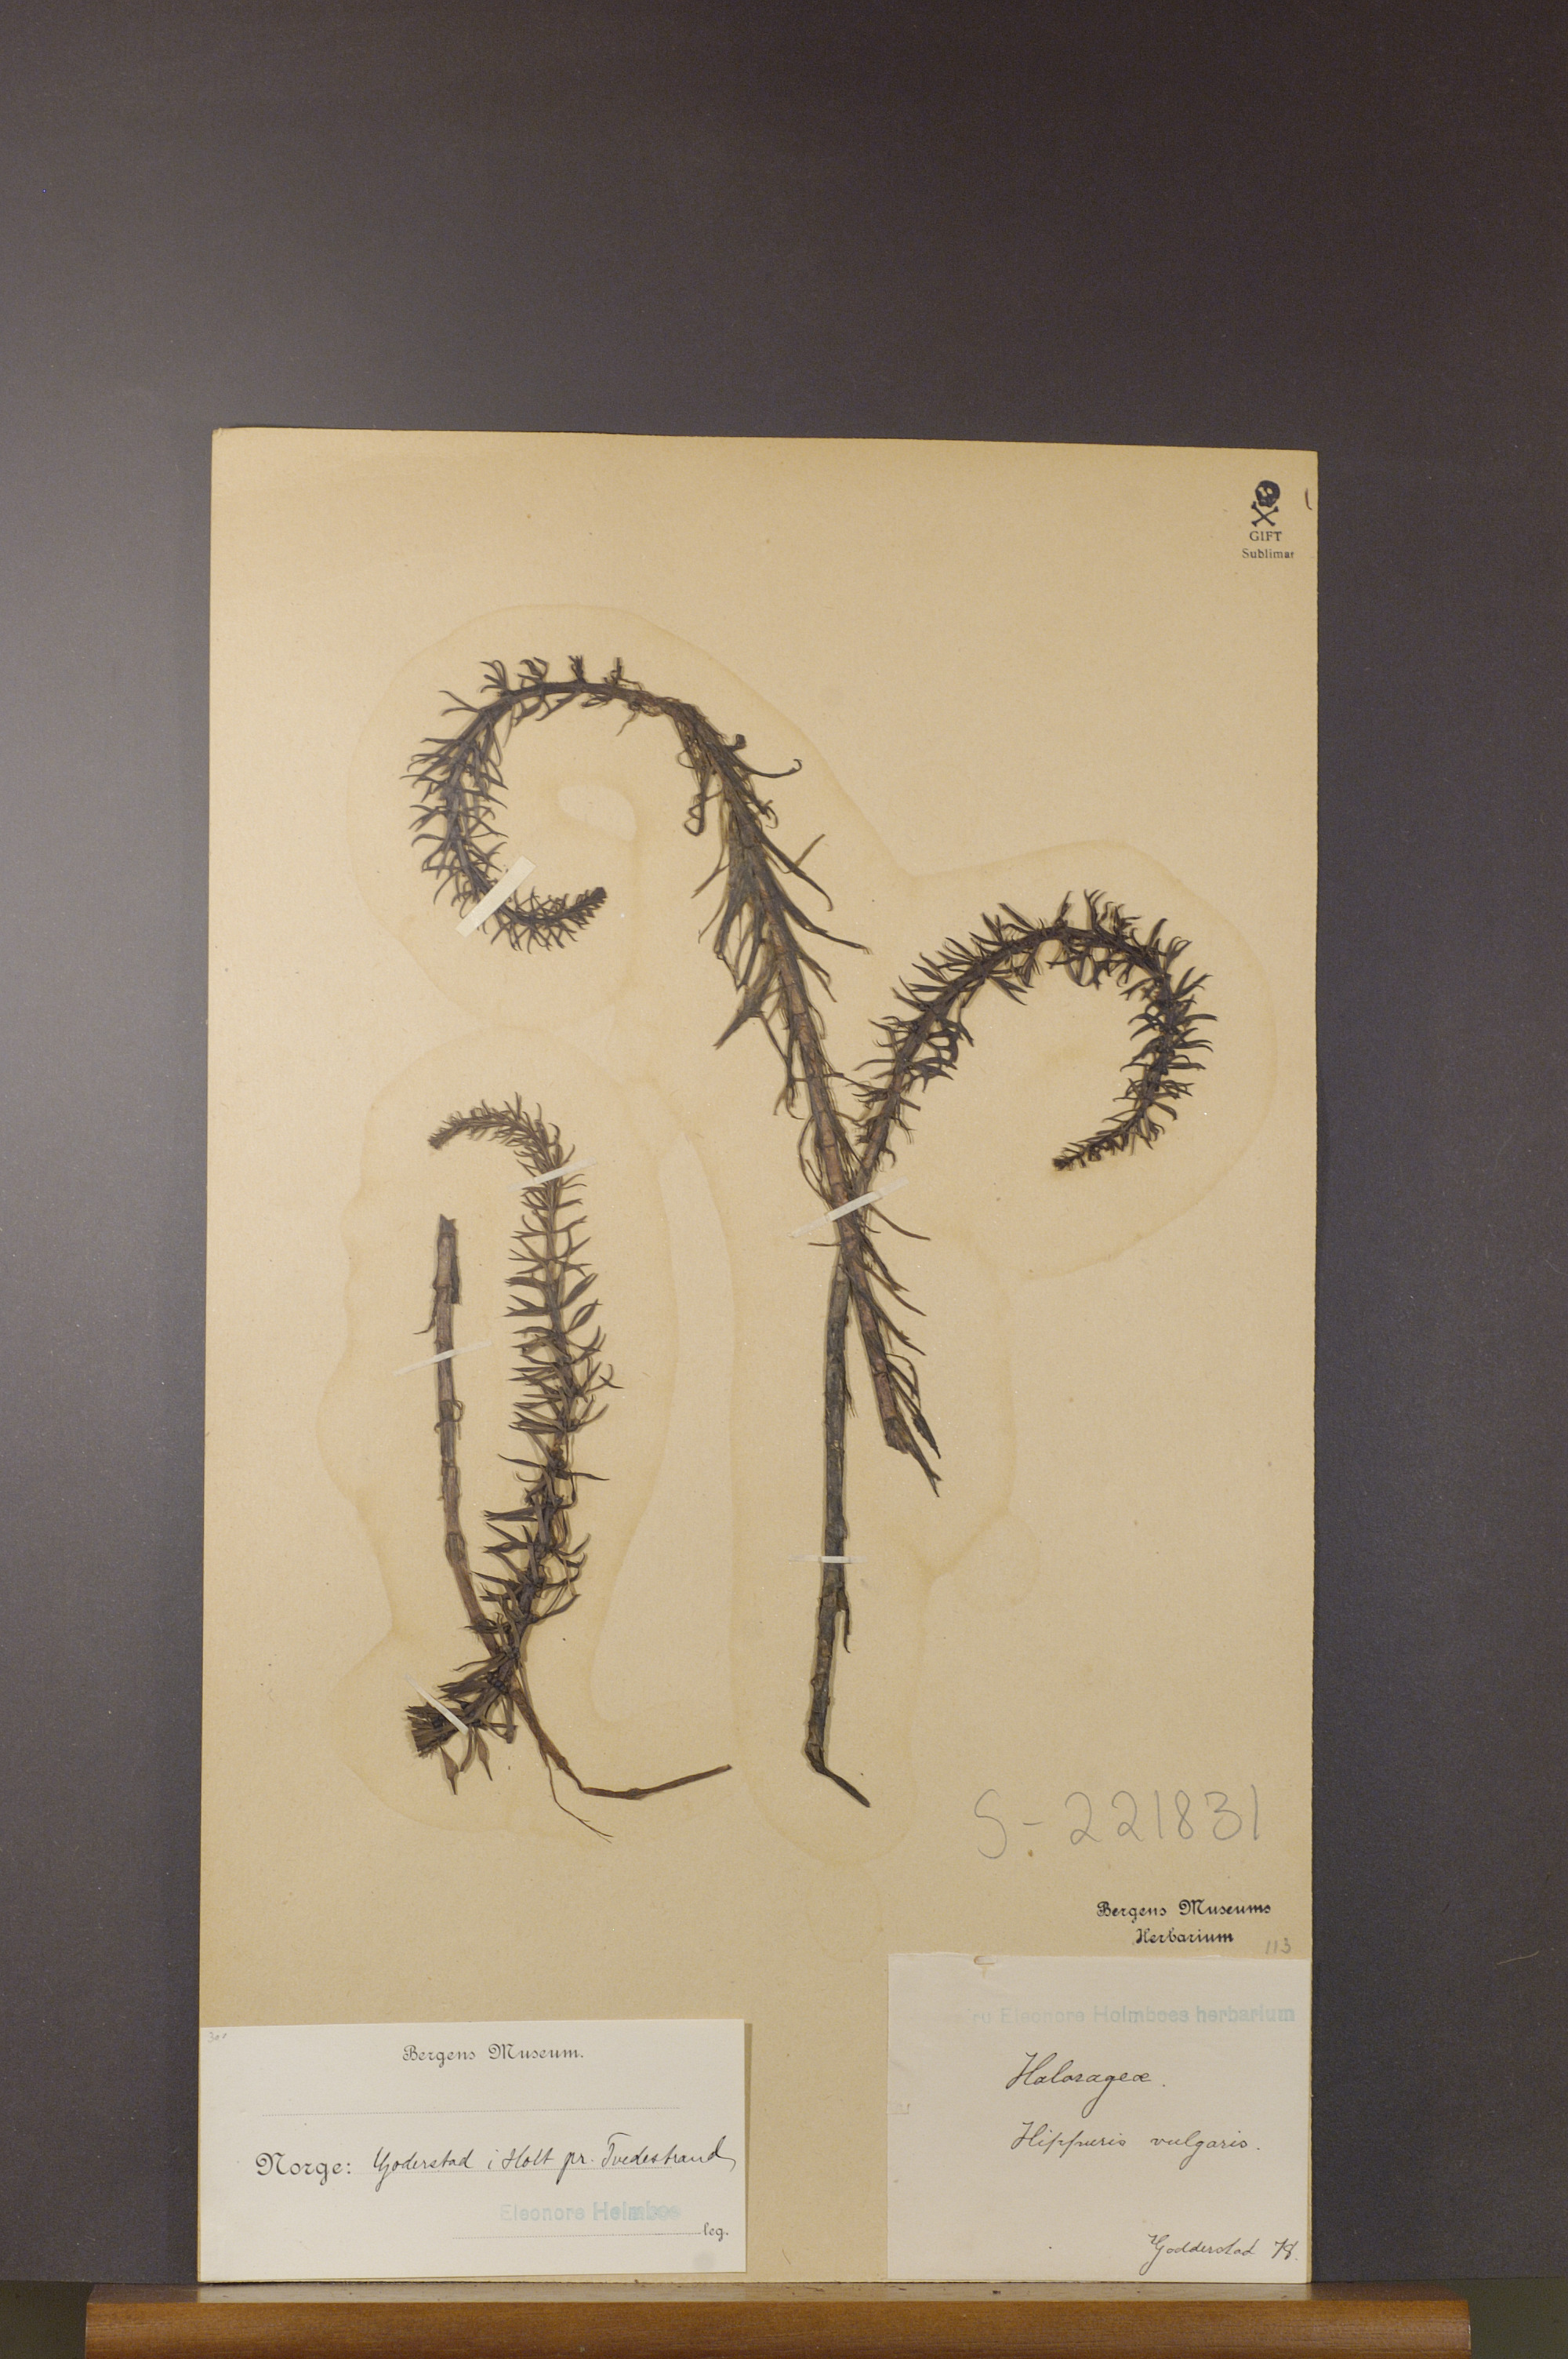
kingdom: Plantae
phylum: Tracheophyta
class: Magnoliopsida
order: Lamiales
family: Plantaginaceae
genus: Hippuris
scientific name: Hippuris vulgaris
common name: Mare's-tail
